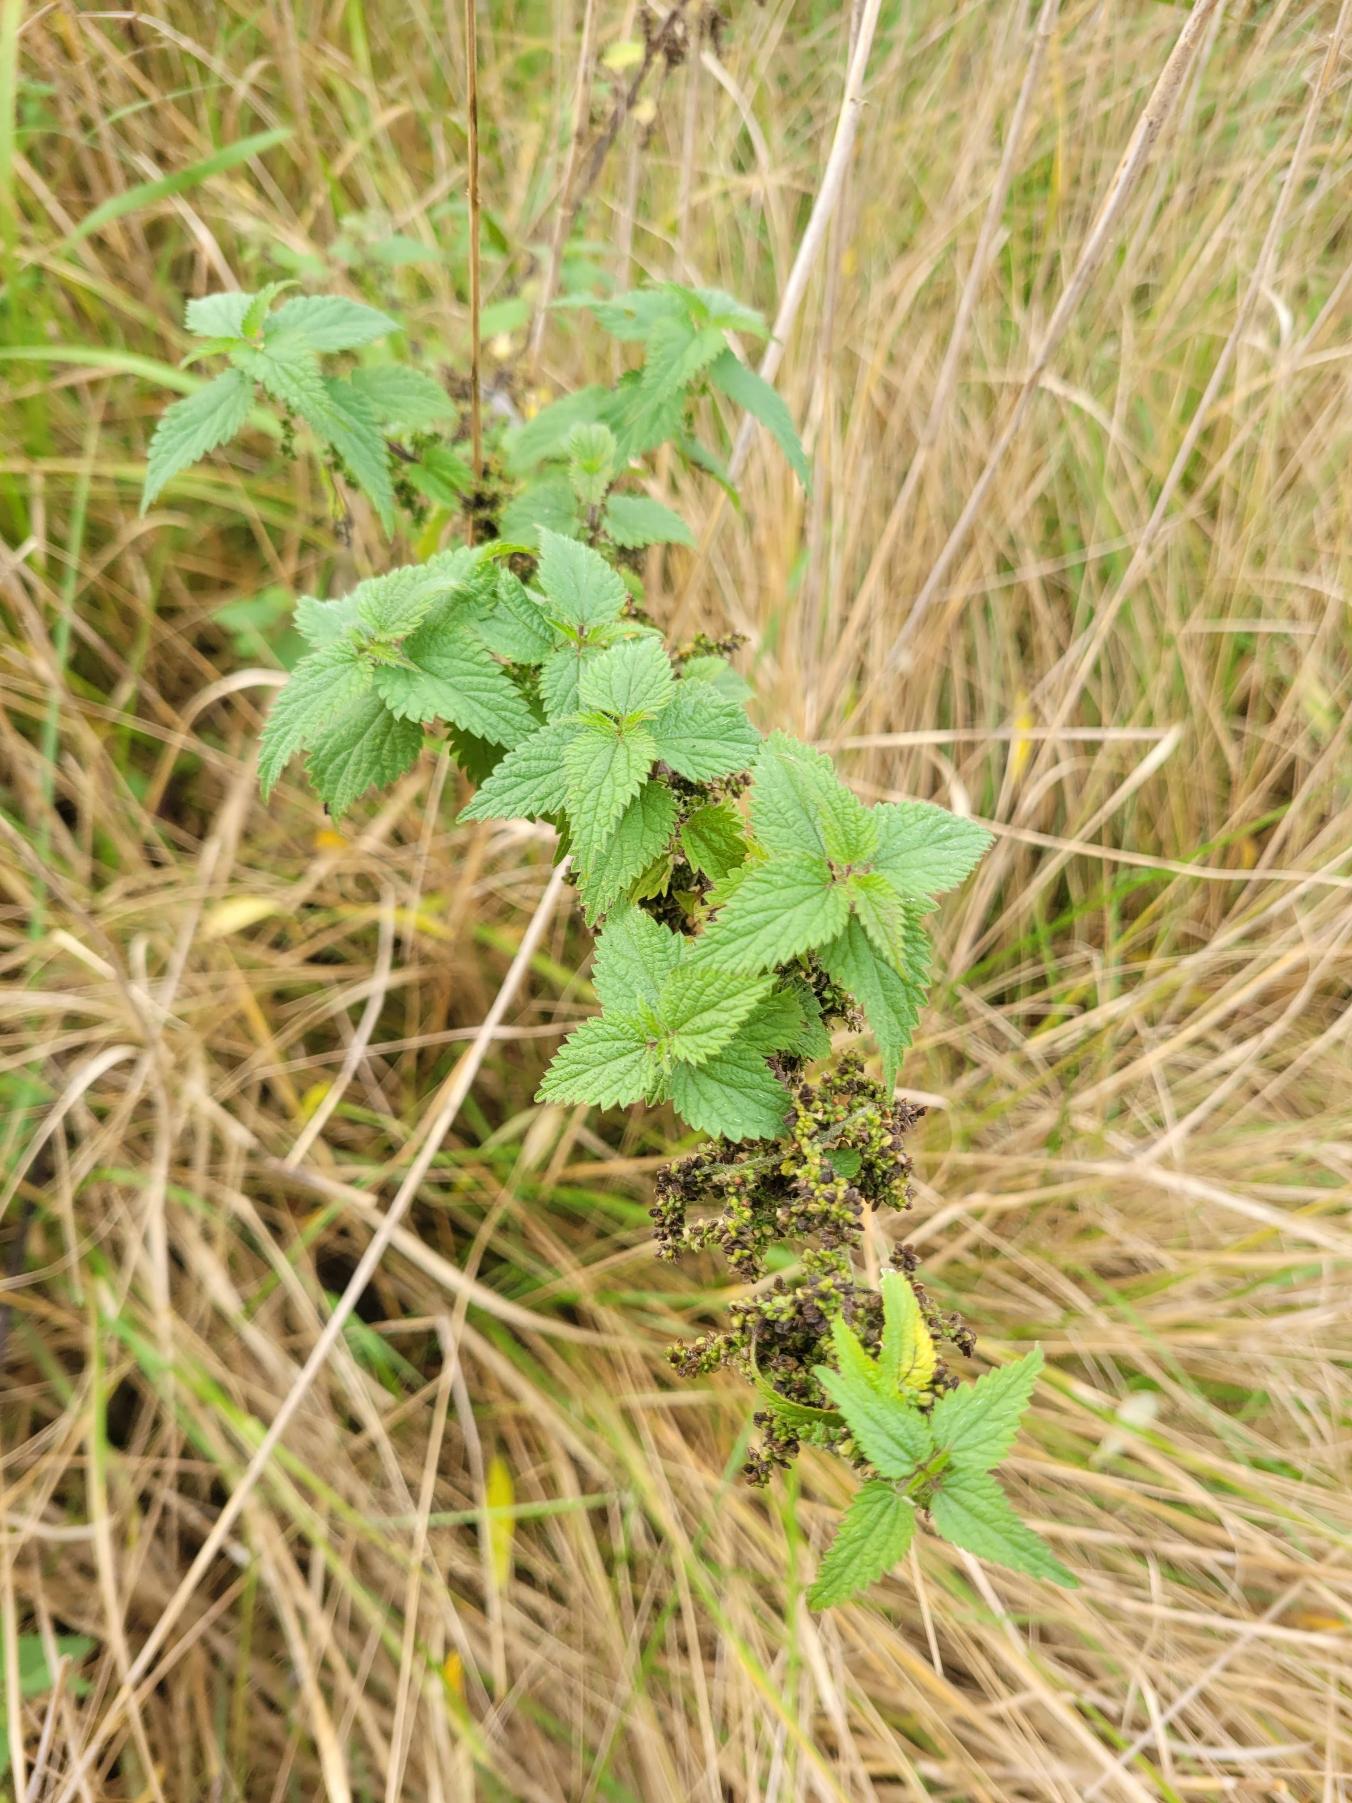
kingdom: Plantae
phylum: Tracheophyta
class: Magnoliopsida
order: Rosales
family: Urticaceae
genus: Urtica
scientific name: Urtica dioica
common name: Stor nælde
